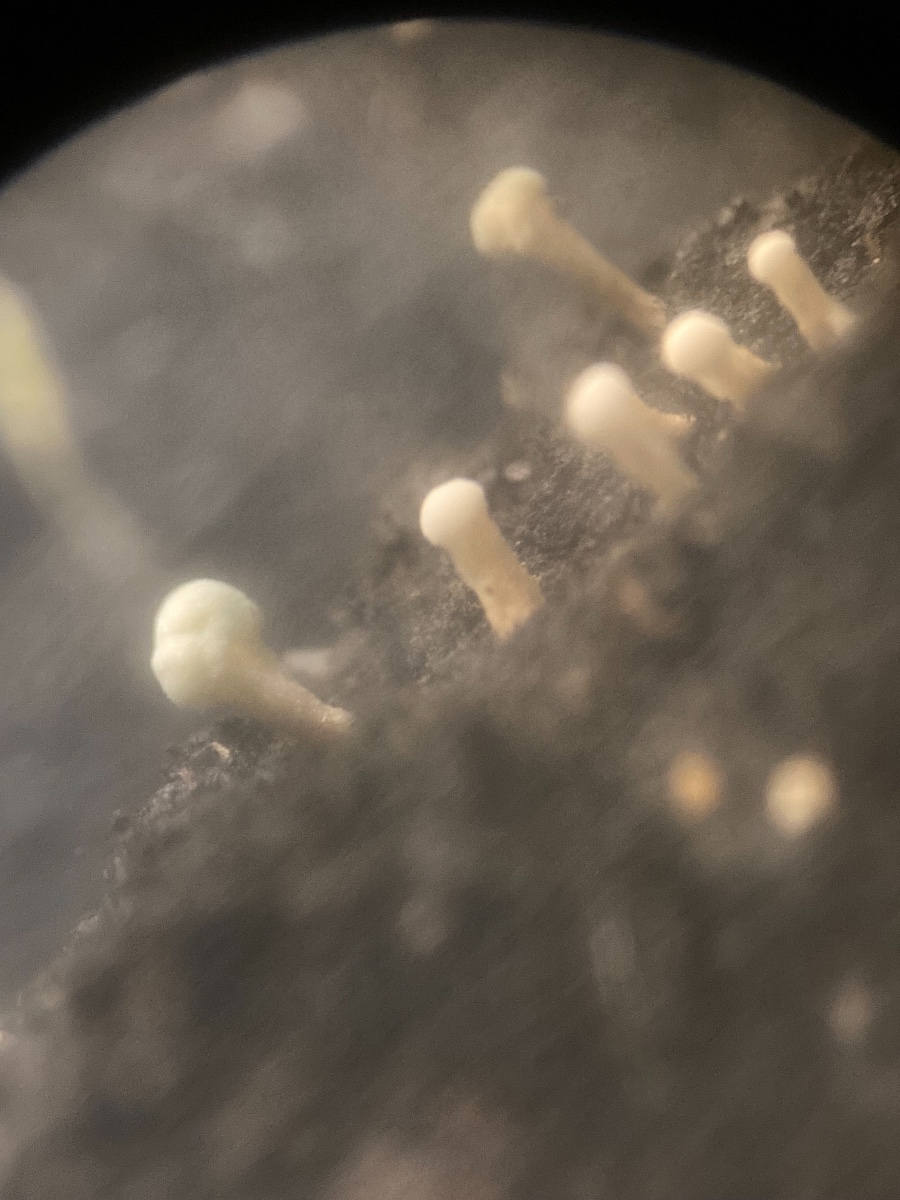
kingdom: Fungi
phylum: Ascomycota
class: Eurotiomycetes
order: Eurotiales
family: Aspergillaceae
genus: Penicillium
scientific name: Penicillium
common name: penselskimmel
